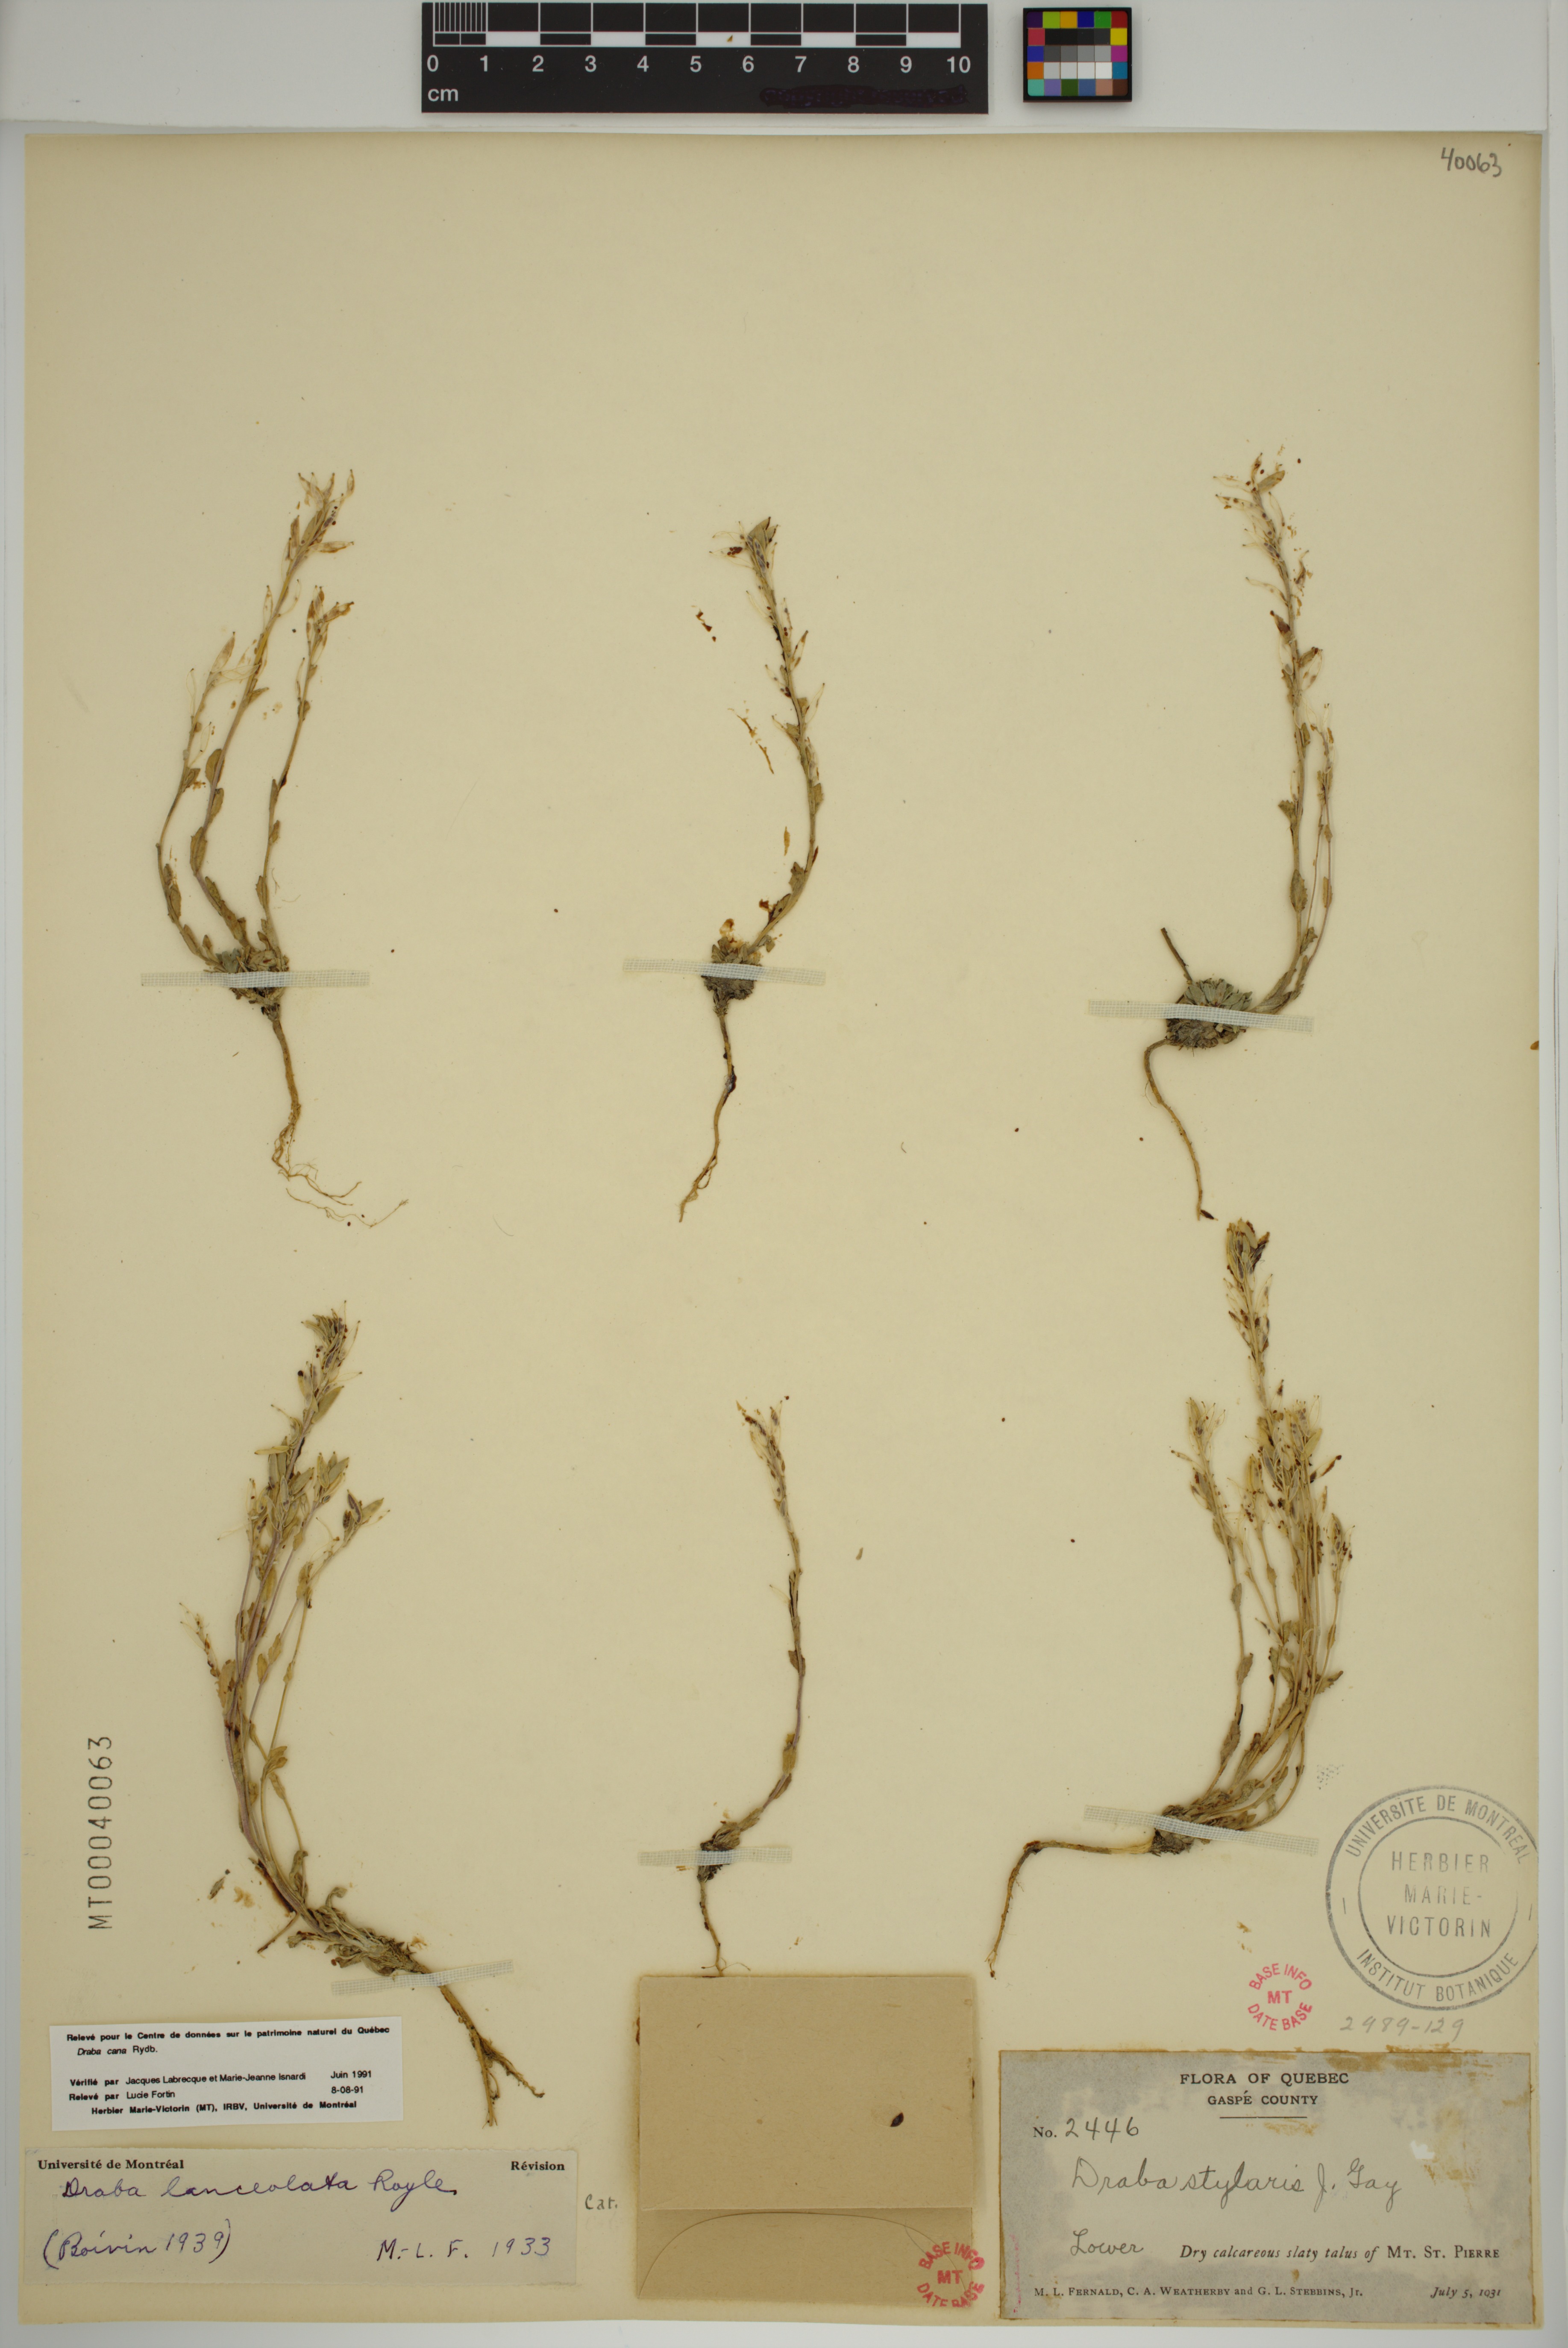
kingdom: Plantae
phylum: Tracheophyta
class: Magnoliopsida
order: Brassicales
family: Brassicaceae
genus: Draba
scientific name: Draba lanceolata
